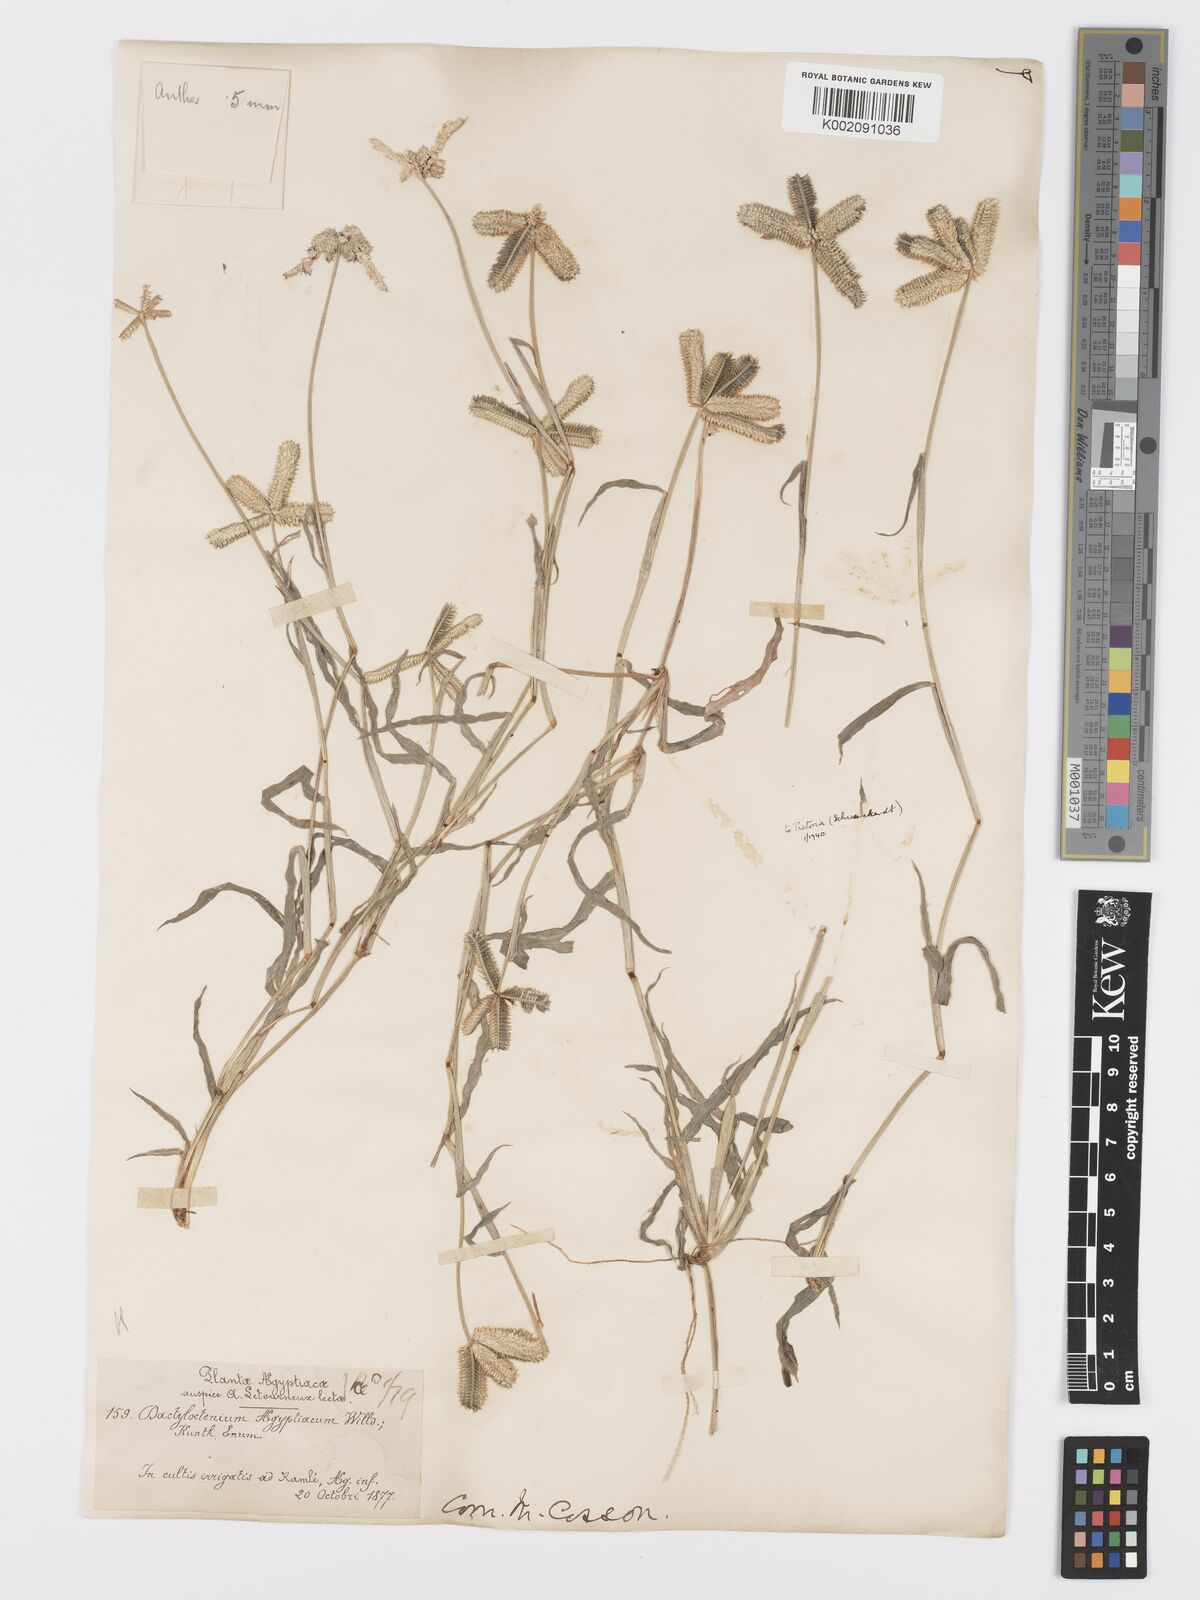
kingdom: Plantae
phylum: Tracheophyta
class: Liliopsida
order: Poales
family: Poaceae
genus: Dactyloctenium
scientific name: Dactyloctenium aegyptium
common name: Egyptian grass
